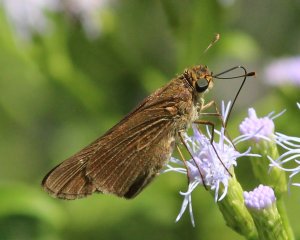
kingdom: Animalia
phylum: Arthropoda
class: Insecta
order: Lepidoptera
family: Hesperiidae
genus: Panoquina
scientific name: Panoquina ocola
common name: Ocola Skipper
